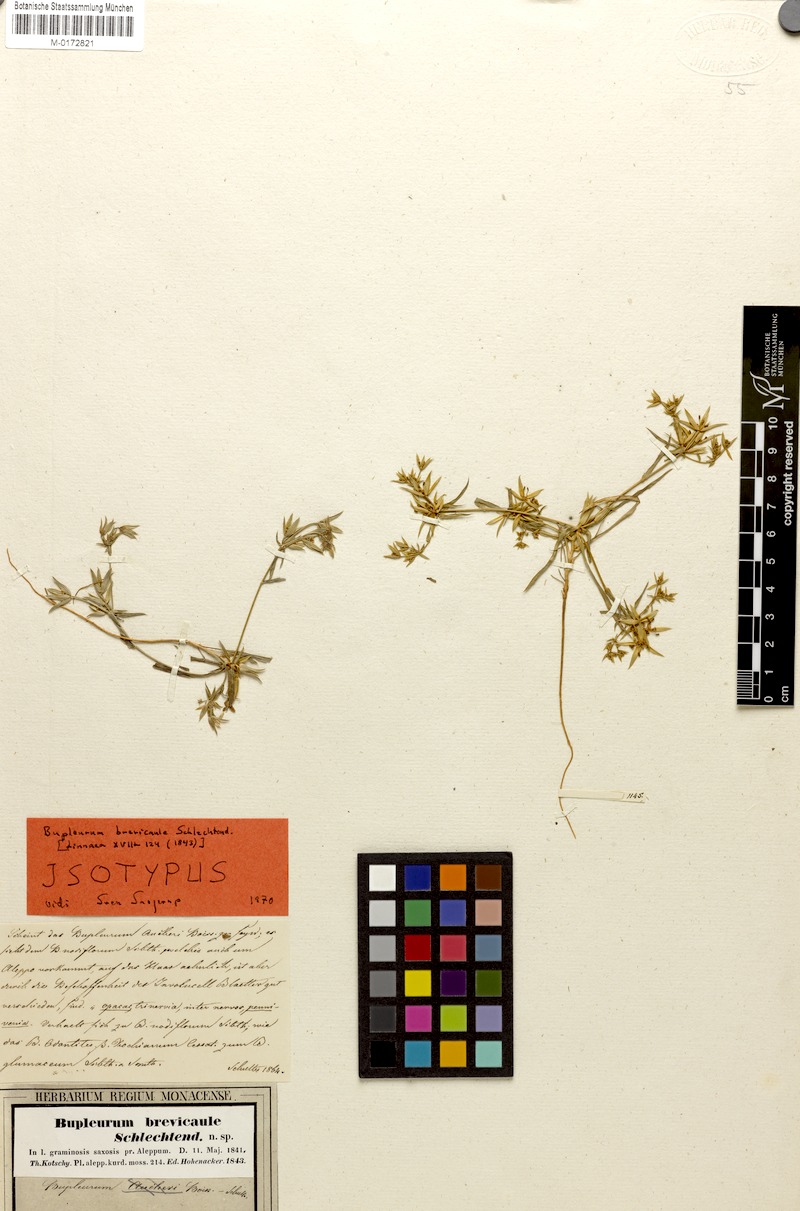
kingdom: Plantae
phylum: Tracheophyta
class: Magnoliopsida
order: Apiales
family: Apiaceae
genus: Bupleurum
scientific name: Bupleurum brevicaule
